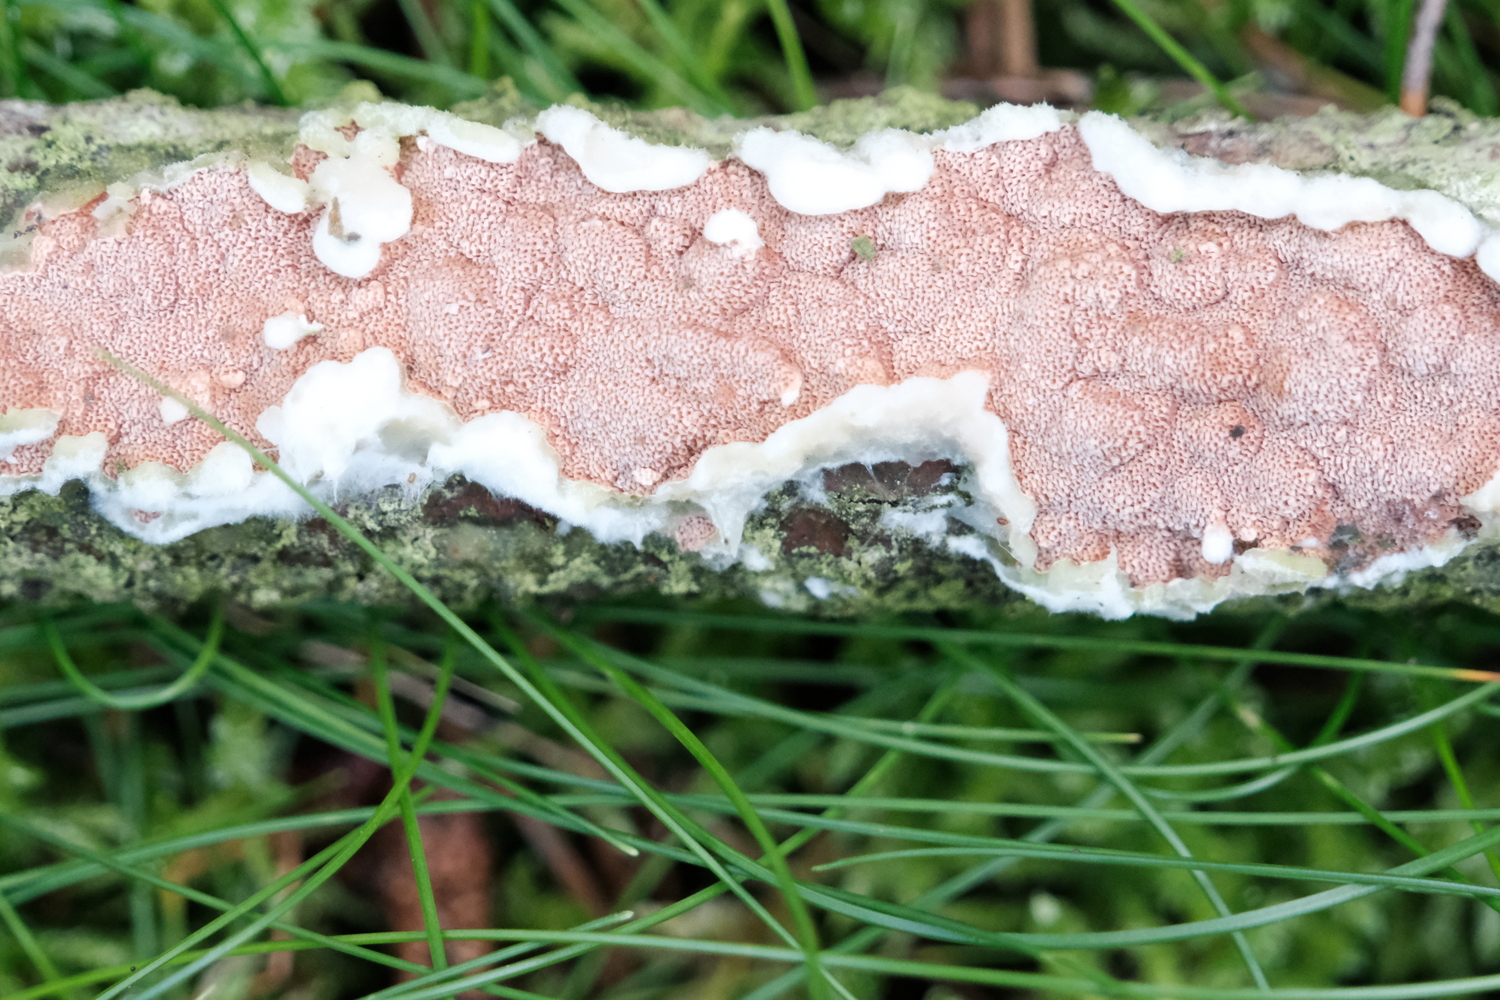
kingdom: Fungi
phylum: Basidiomycota
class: Agaricomycetes
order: Polyporales
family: Irpicaceae
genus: Meruliopsis
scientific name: Meruliopsis taxicola
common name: purpurbrun foldporesvamp
